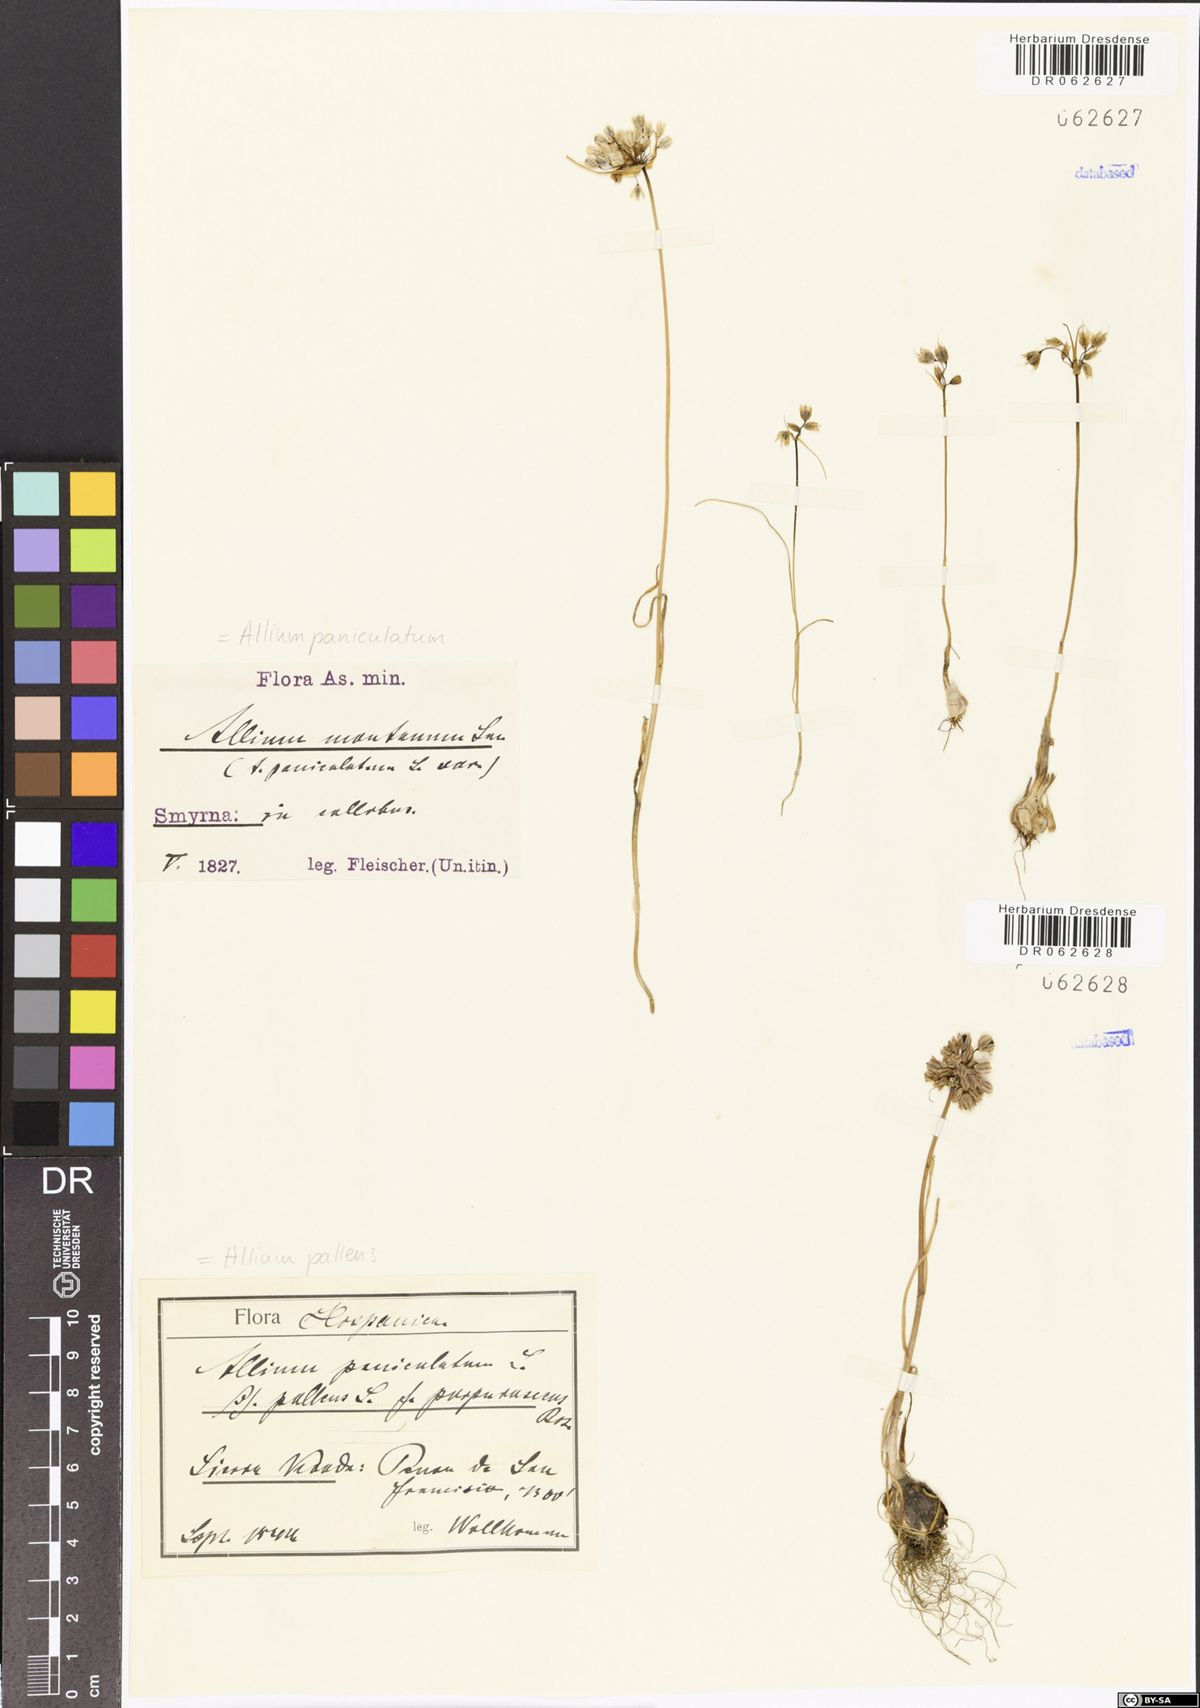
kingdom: Plantae
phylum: Tracheophyta
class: Liliopsida
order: Asparagales
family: Amaryllidaceae
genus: Allium
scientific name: Allium pallens
